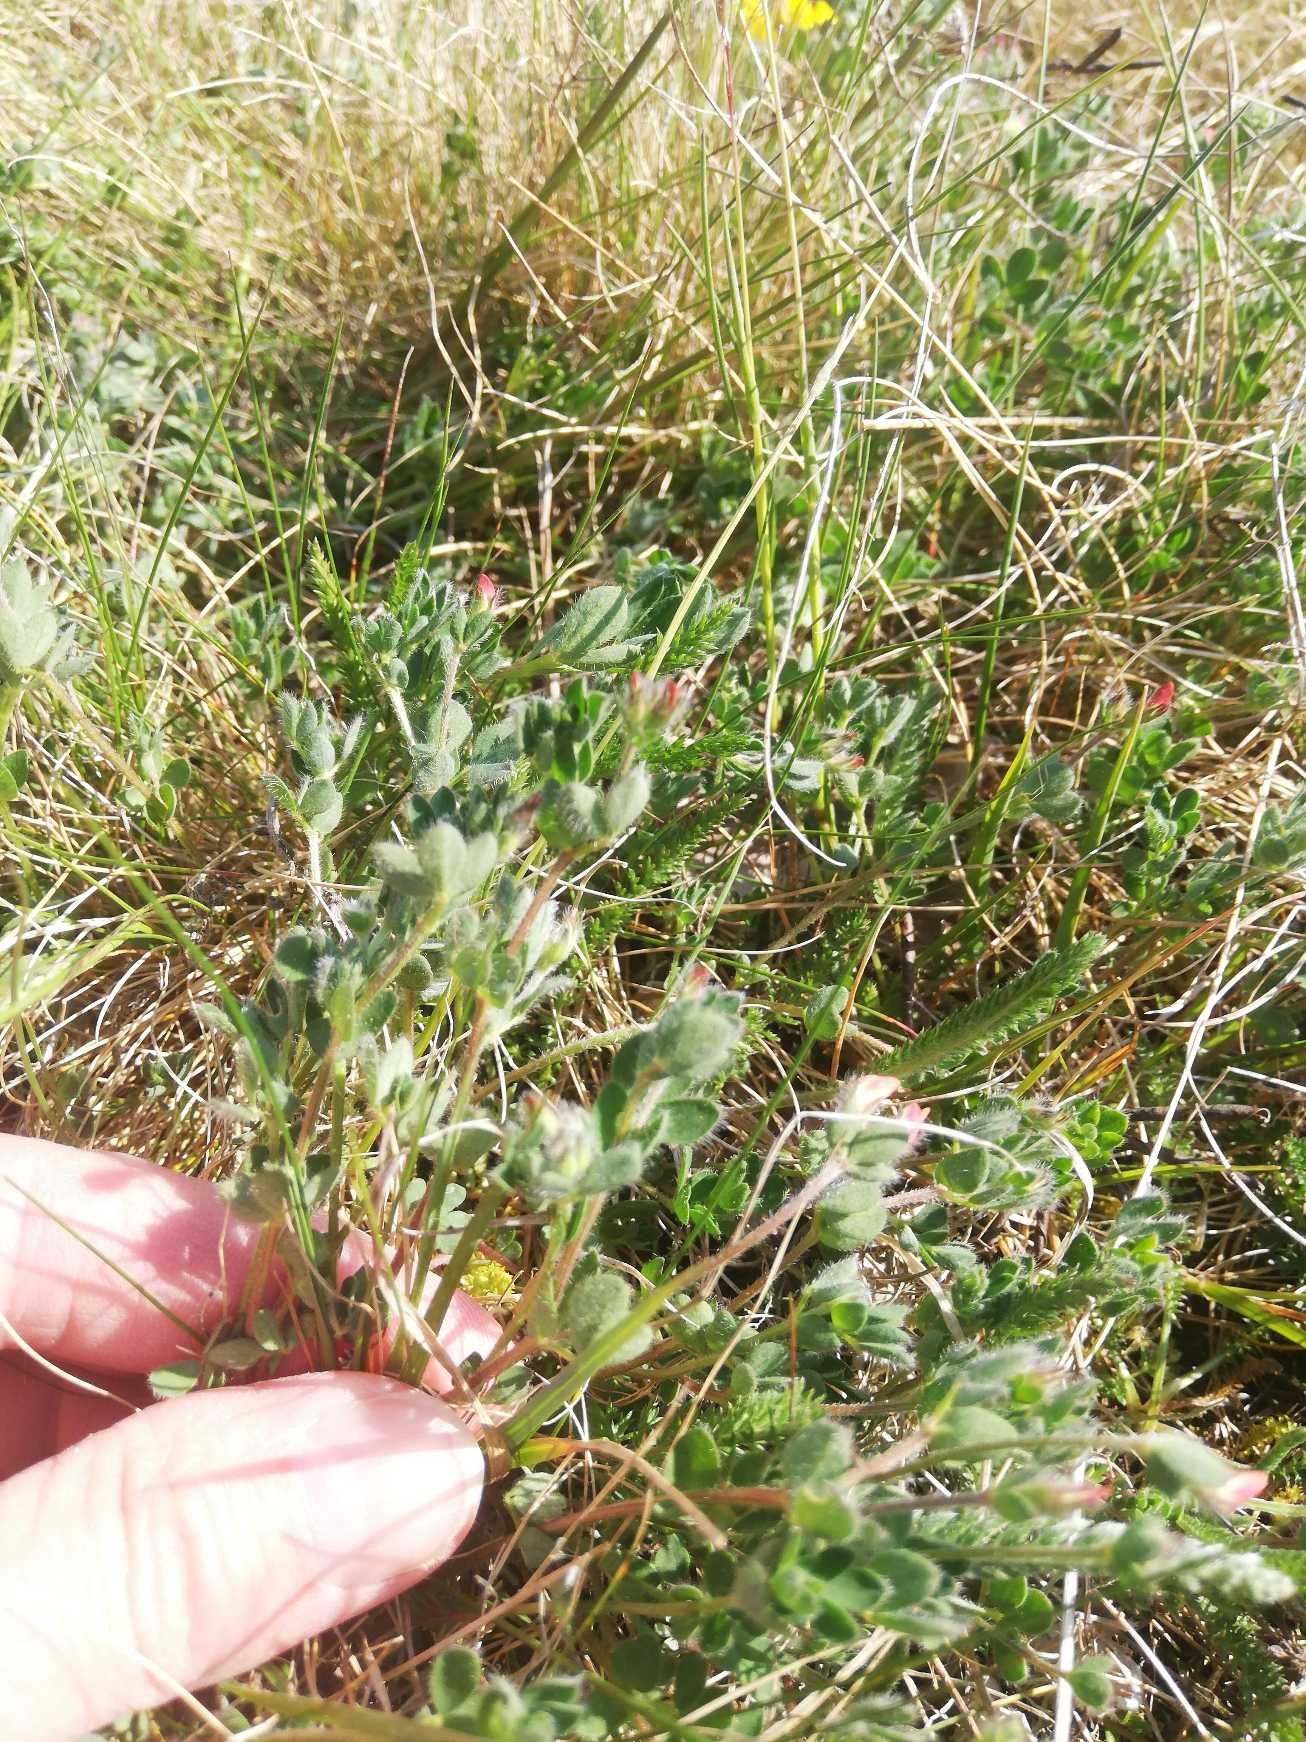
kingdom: Plantae
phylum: Tracheophyta
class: Magnoliopsida
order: Fabales
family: Fabaceae
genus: Lotus
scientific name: Lotus corniculatus
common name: Almindelig kællingetand
